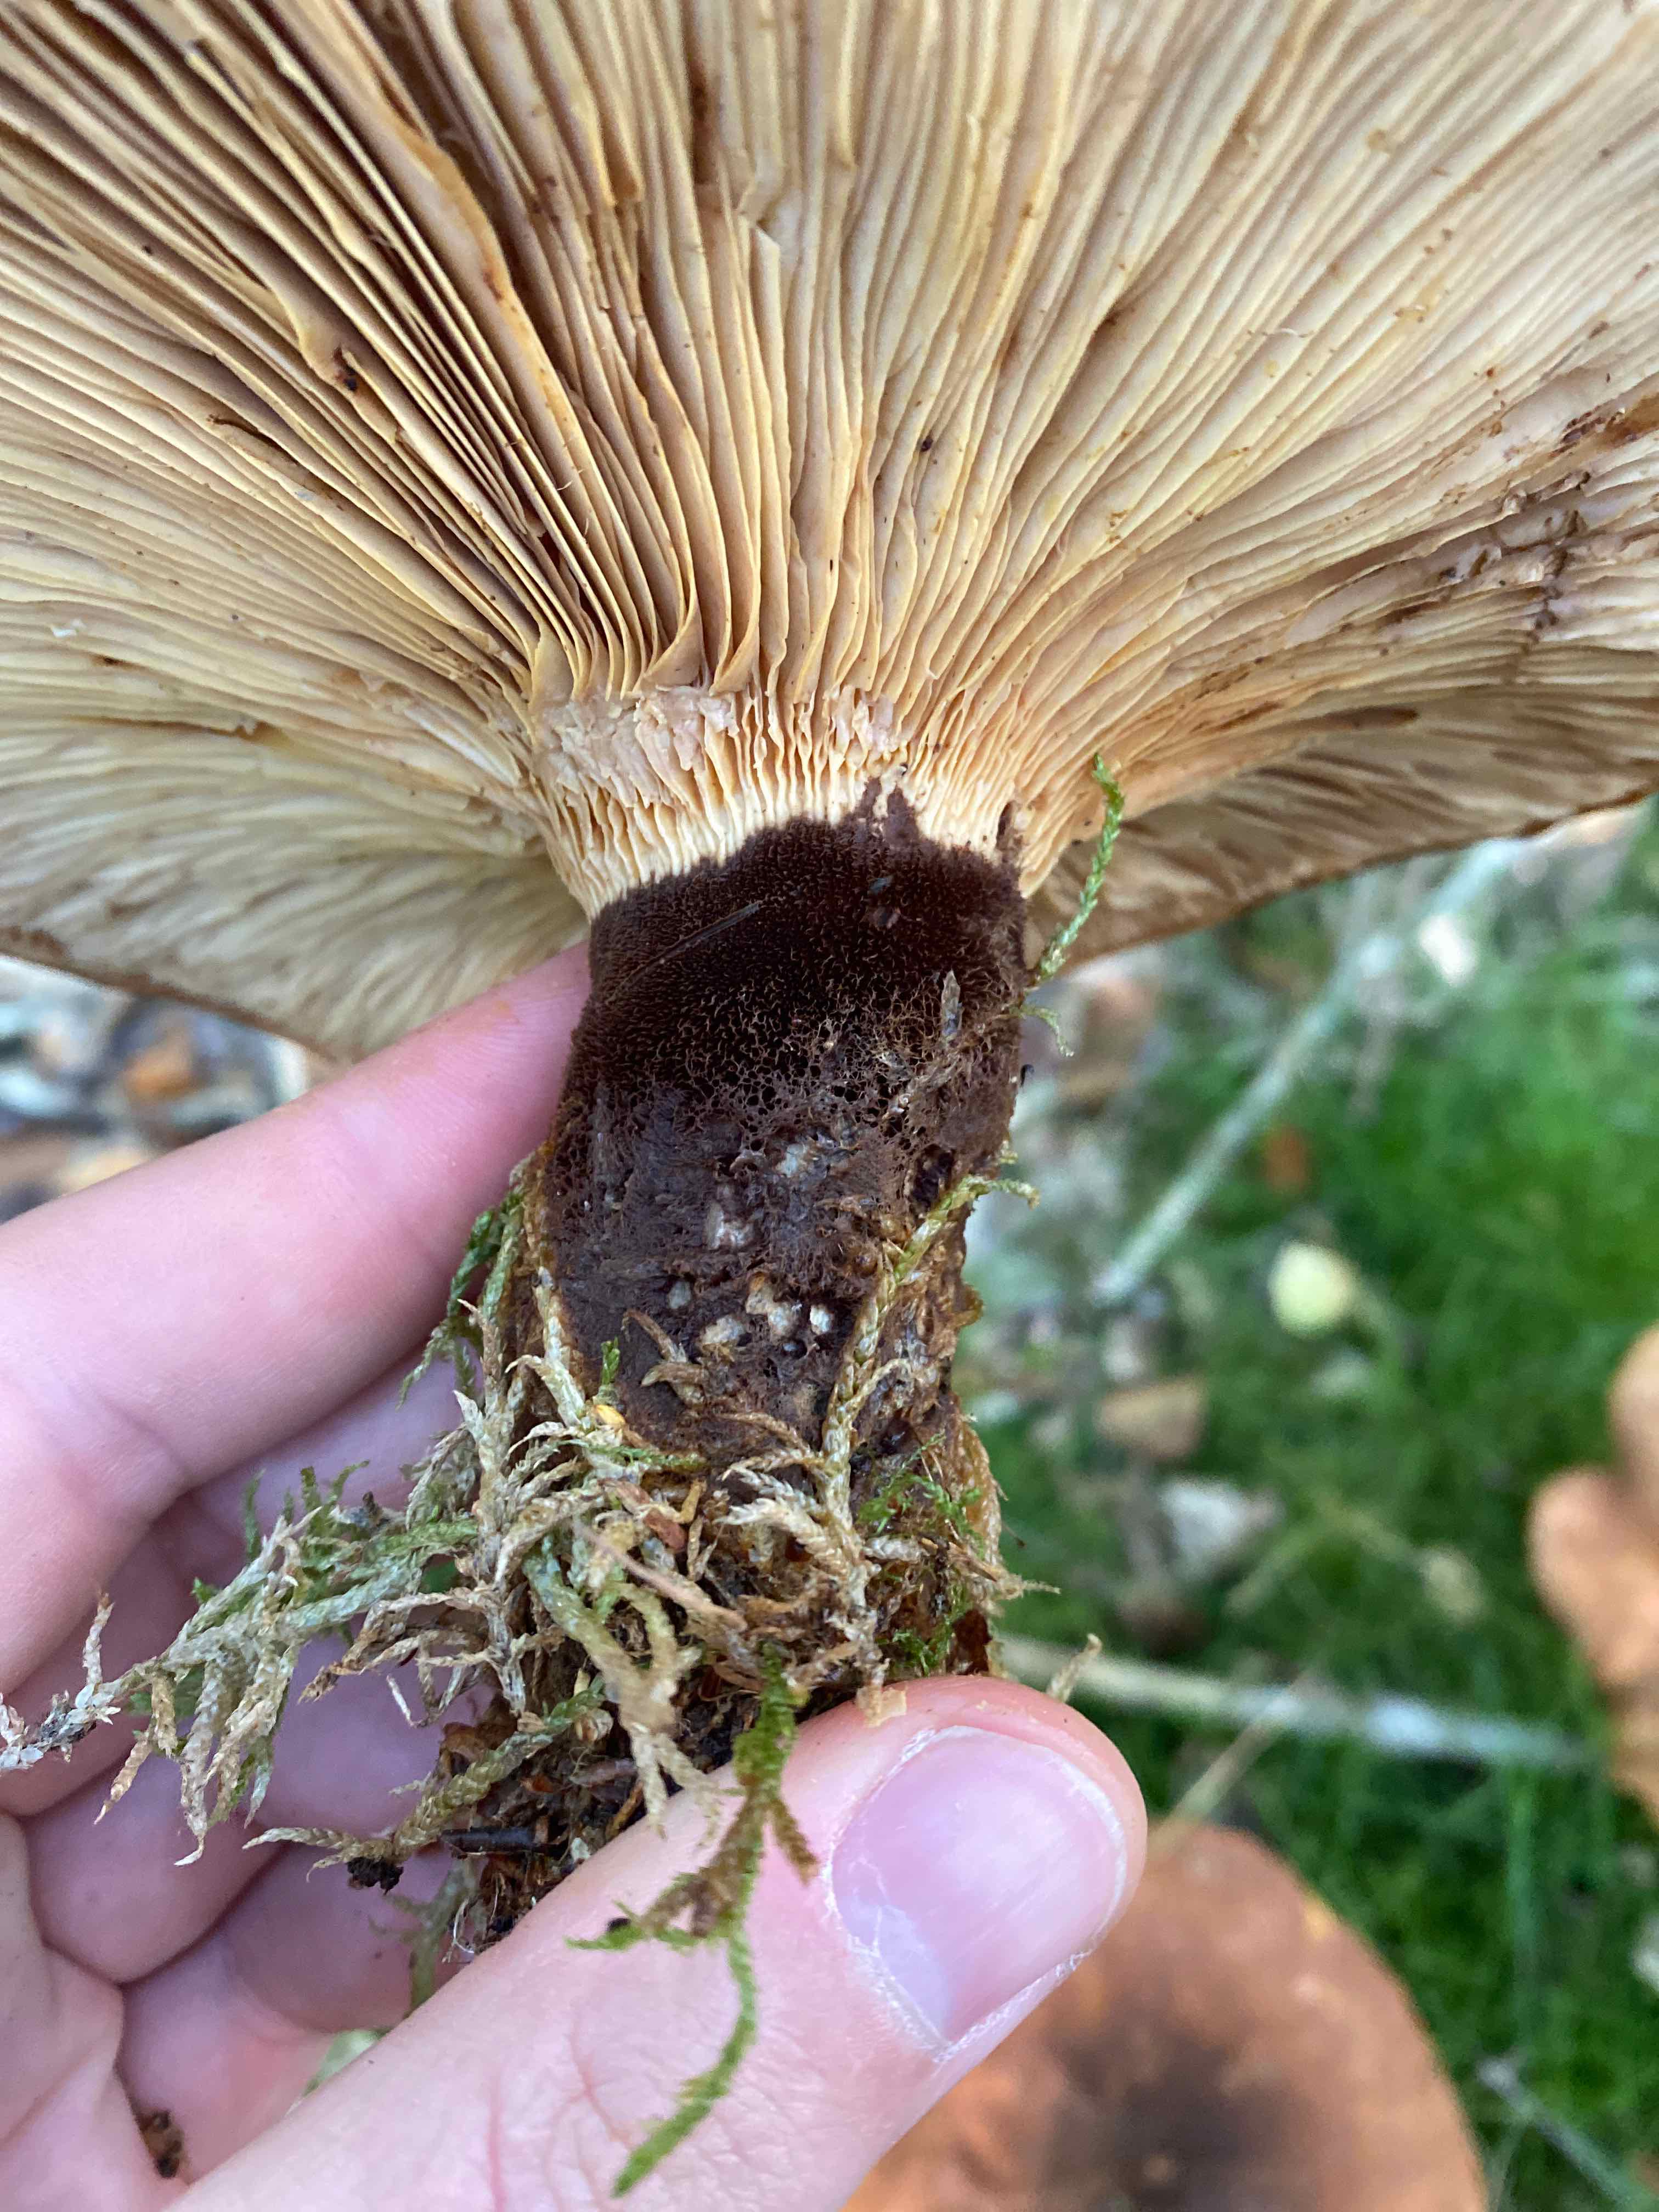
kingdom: Fungi
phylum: Basidiomycota
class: Agaricomycetes
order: Boletales
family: Tapinellaceae
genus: Tapinella
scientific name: Tapinella atrotomentosa
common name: sortfiltet viftesvamp
